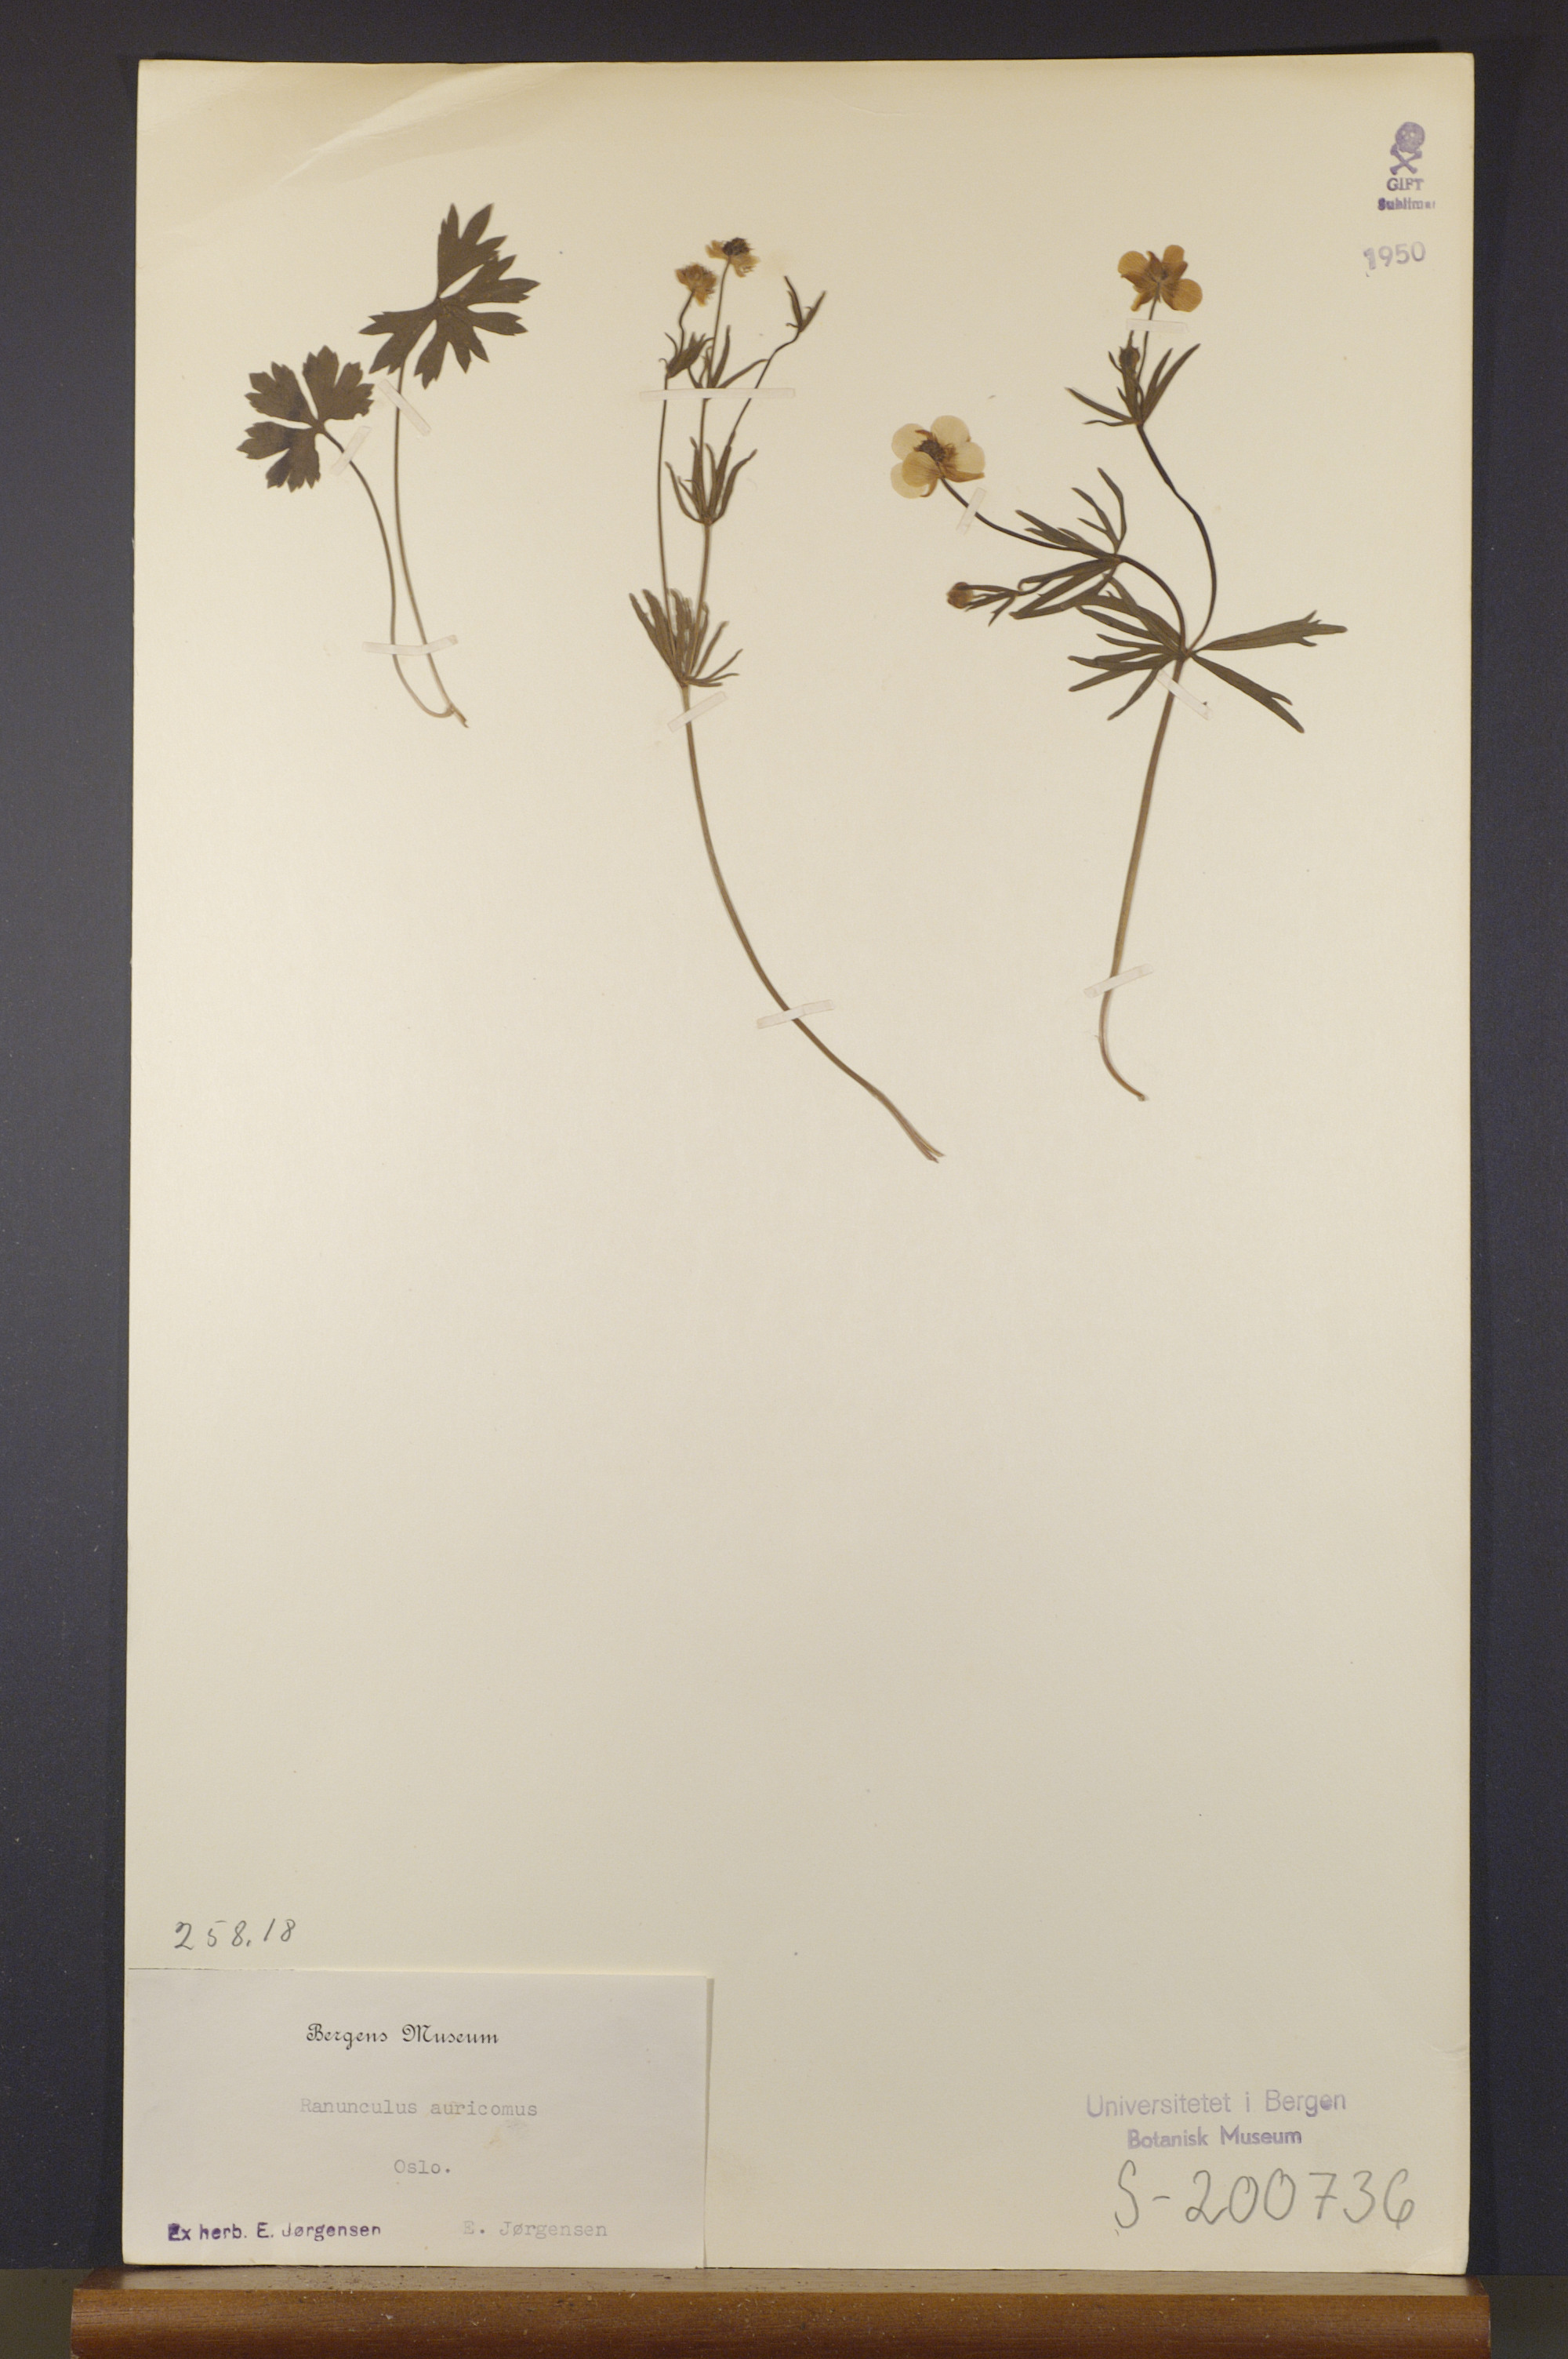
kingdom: Plantae
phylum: Tracheophyta
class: Magnoliopsida
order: Ranunculales
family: Ranunculaceae
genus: Ranunculus
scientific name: Ranunculus auricomus
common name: Goldilocks buttercup
